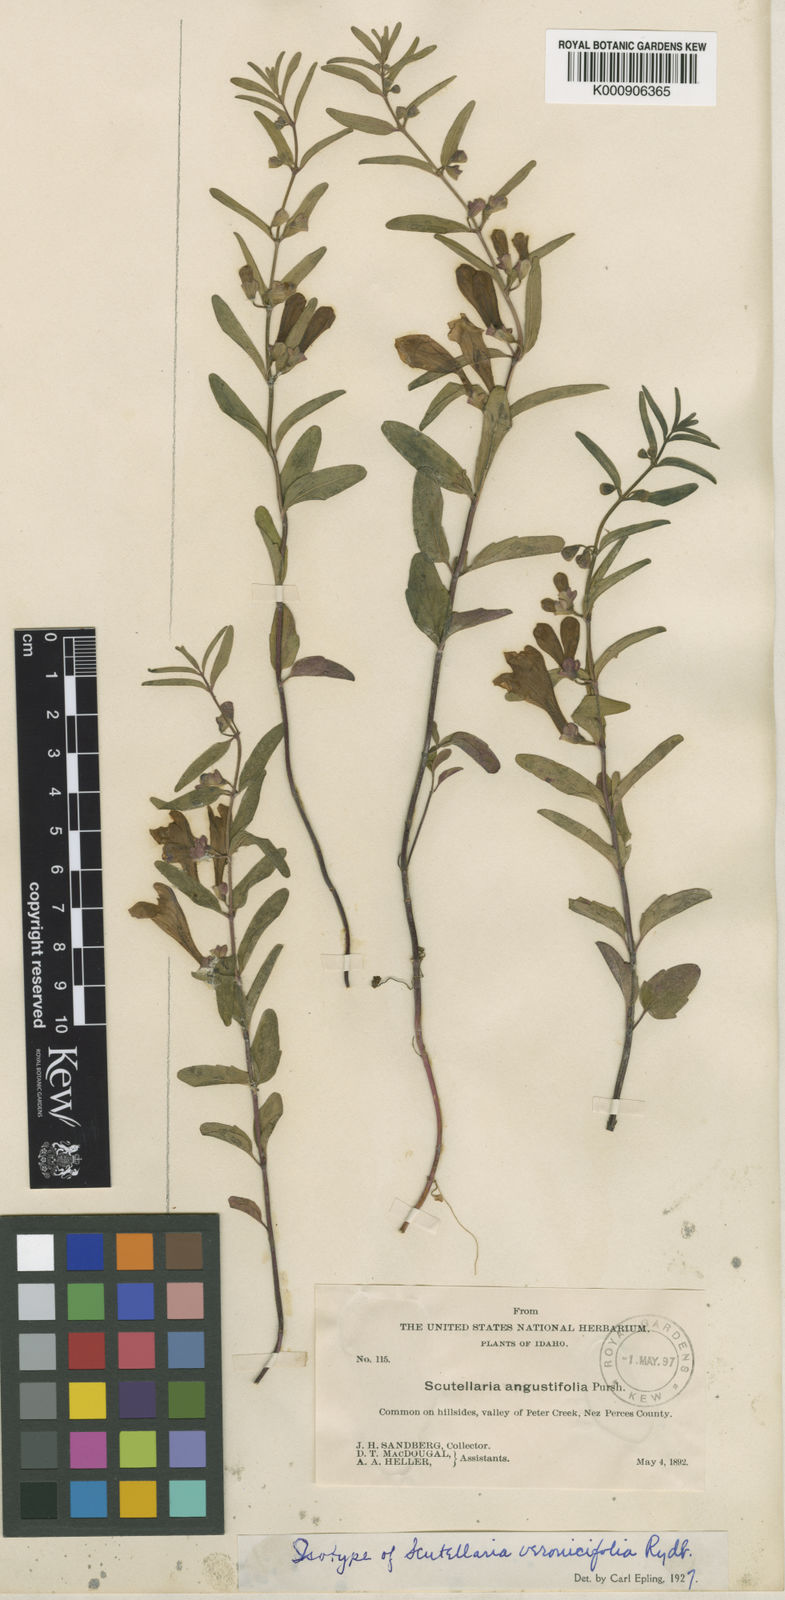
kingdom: Plantae
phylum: Tracheophyta
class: Magnoliopsida
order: Lamiales
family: Lamiaceae
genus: Scutellaria
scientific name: Scutellaria angustifolia
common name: Narrow-leaved skullcap
